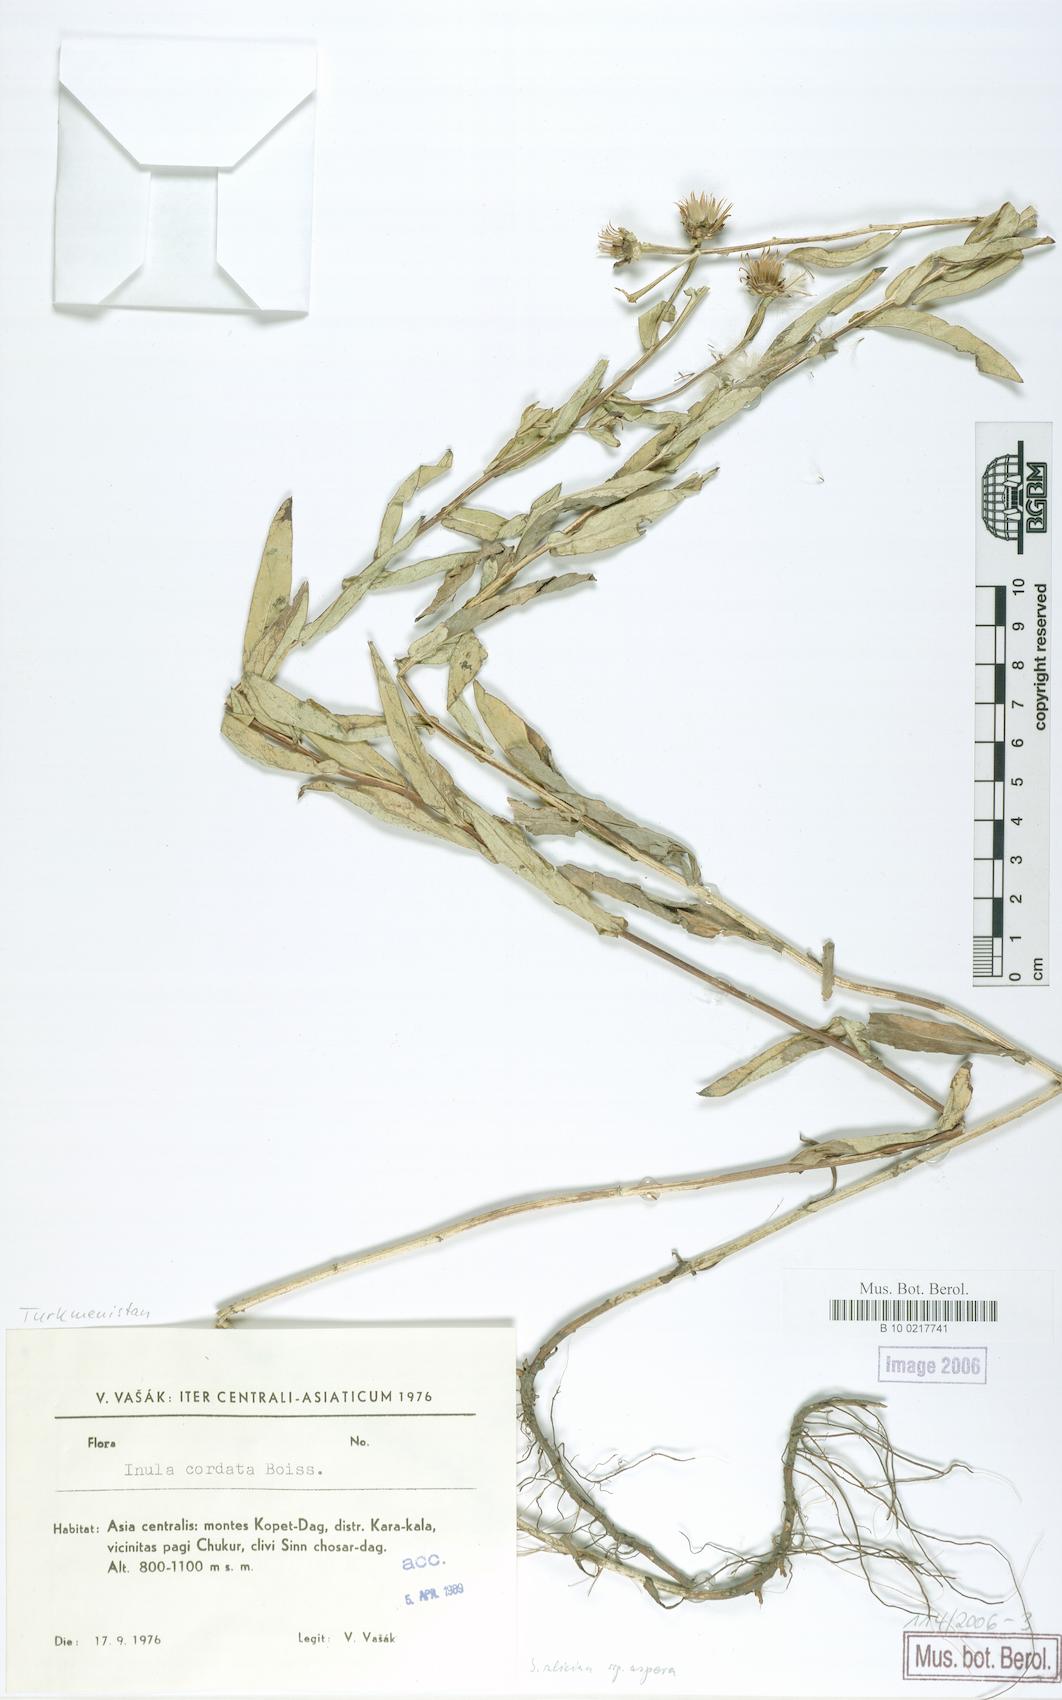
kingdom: Plantae
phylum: Tracheophyta
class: Magnoliopsida
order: Asterales
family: Asteraceae
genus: Pentanema
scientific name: Pentanema salicinum
